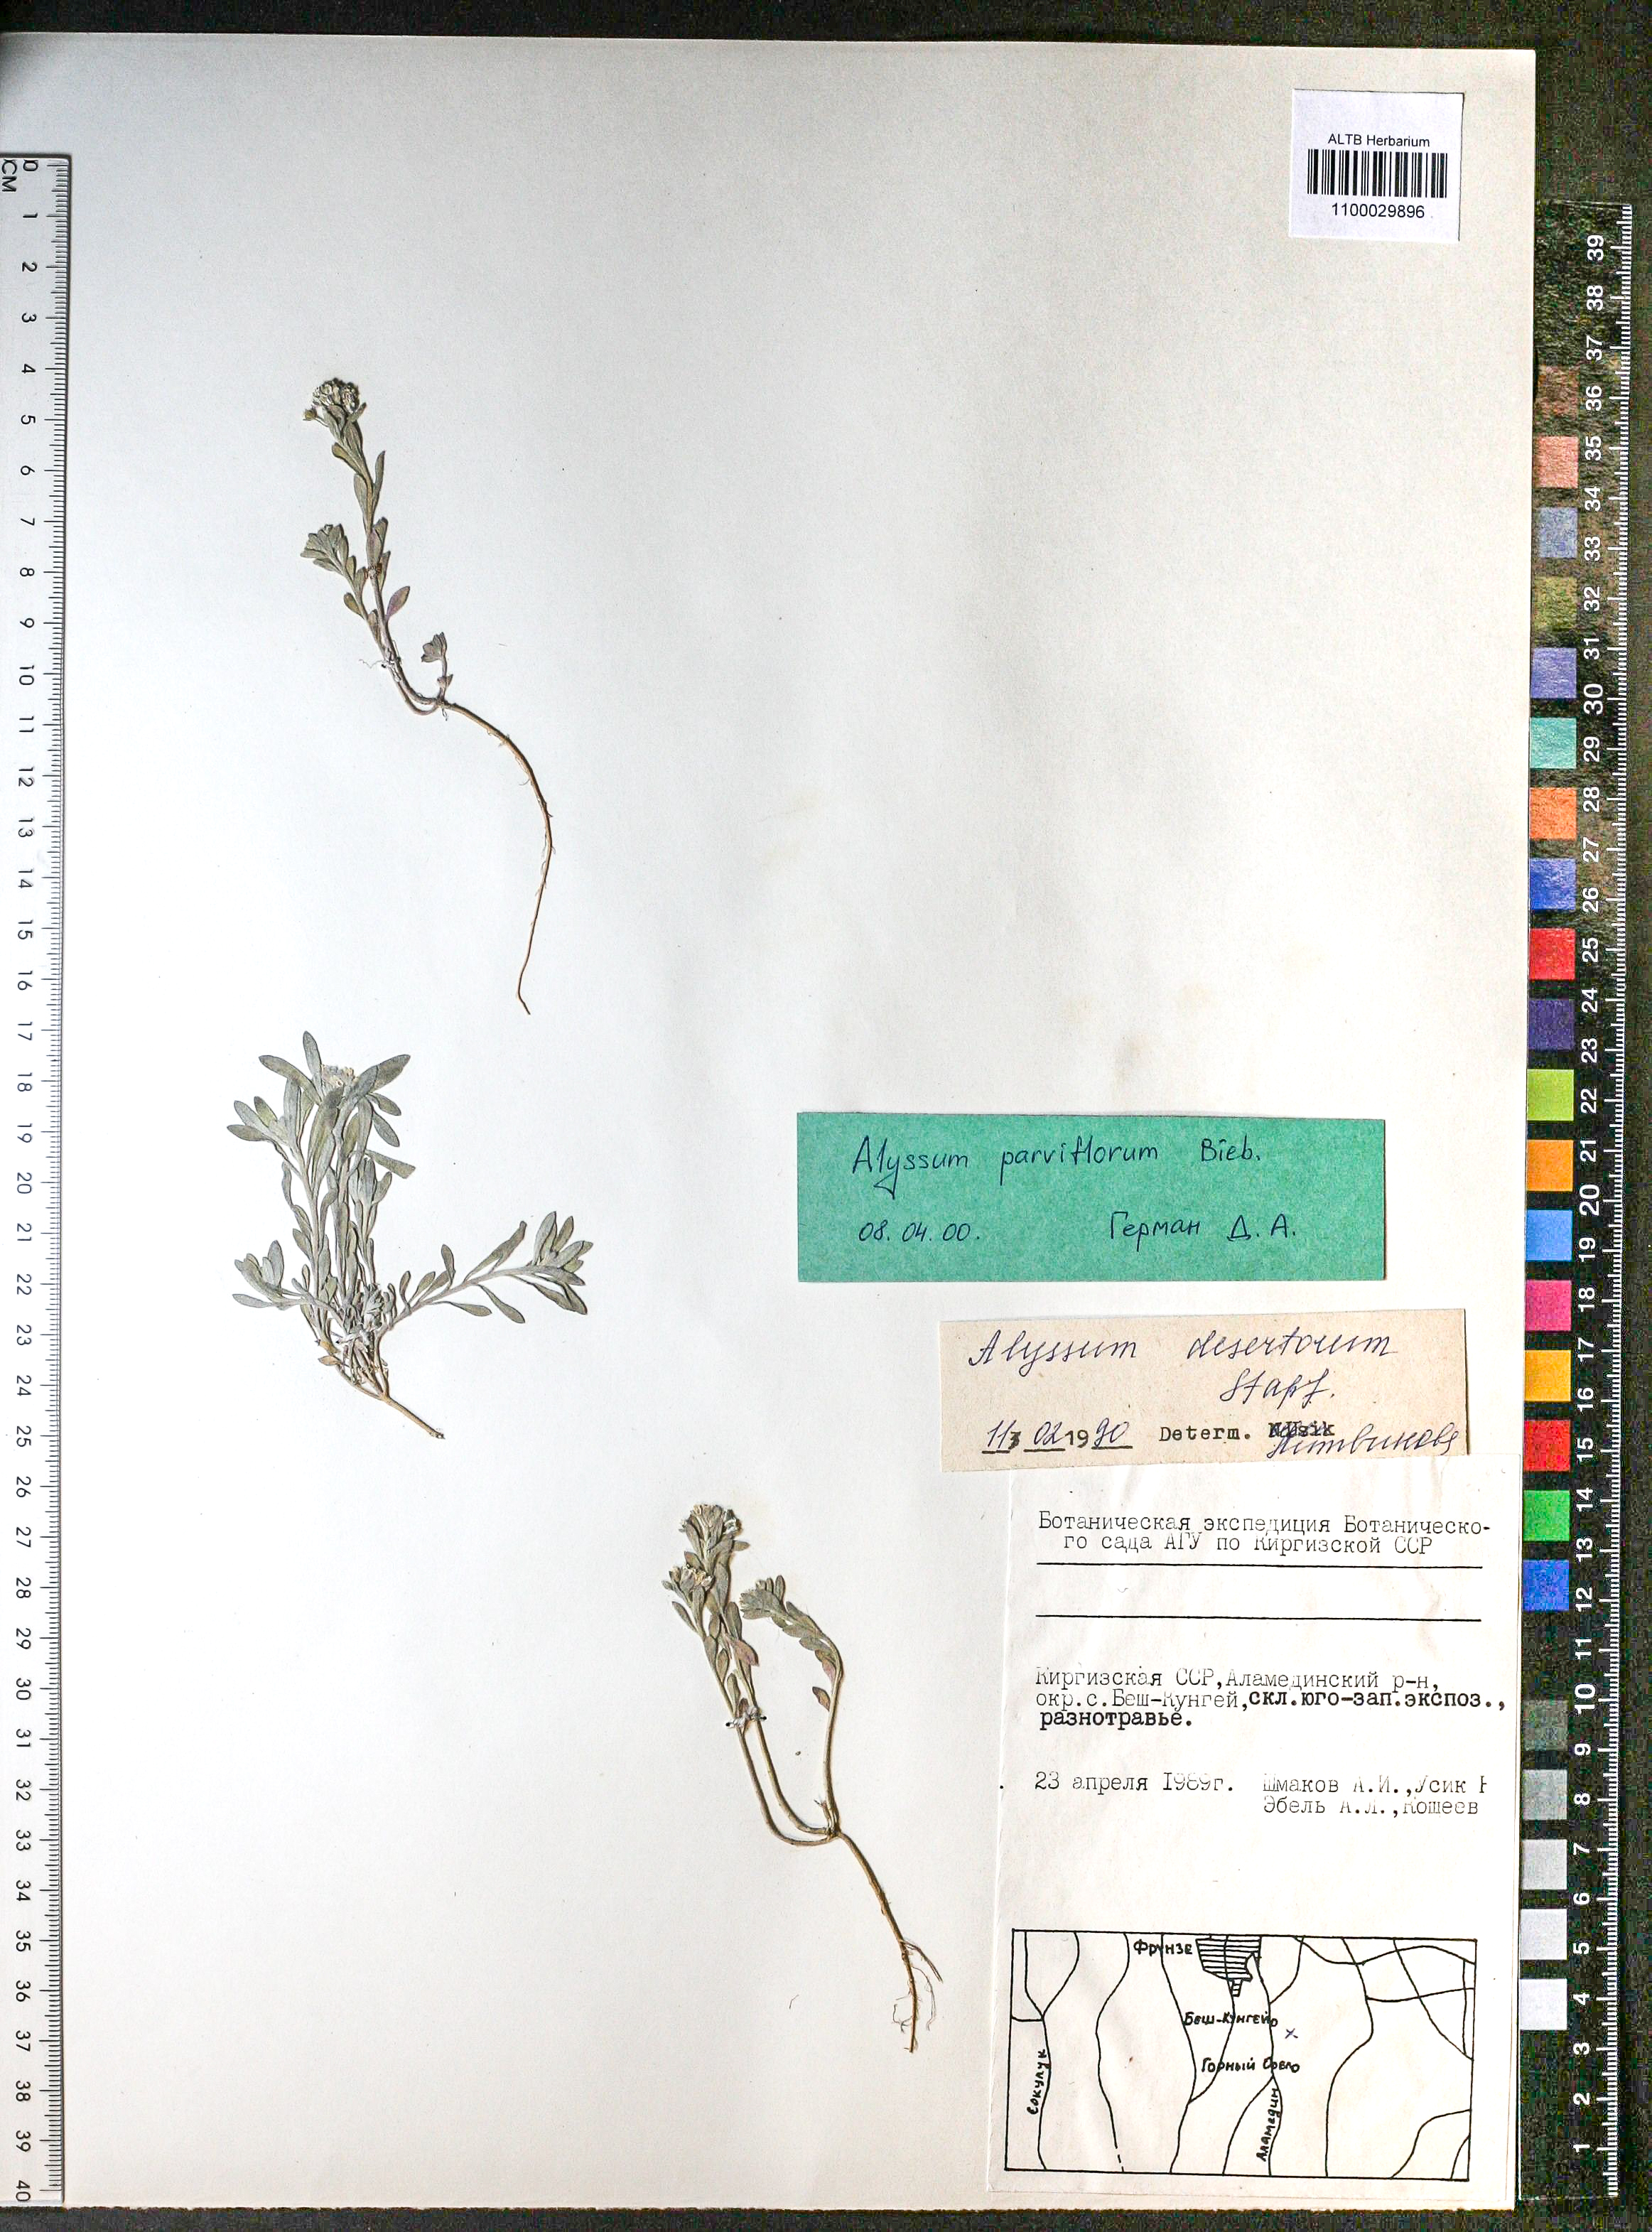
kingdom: Plantae
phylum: Tracheophyta
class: Magnoliopsida
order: Brassicales
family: Brassicaceae
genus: Alyssum
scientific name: Alyssum simplex
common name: Alyssum
